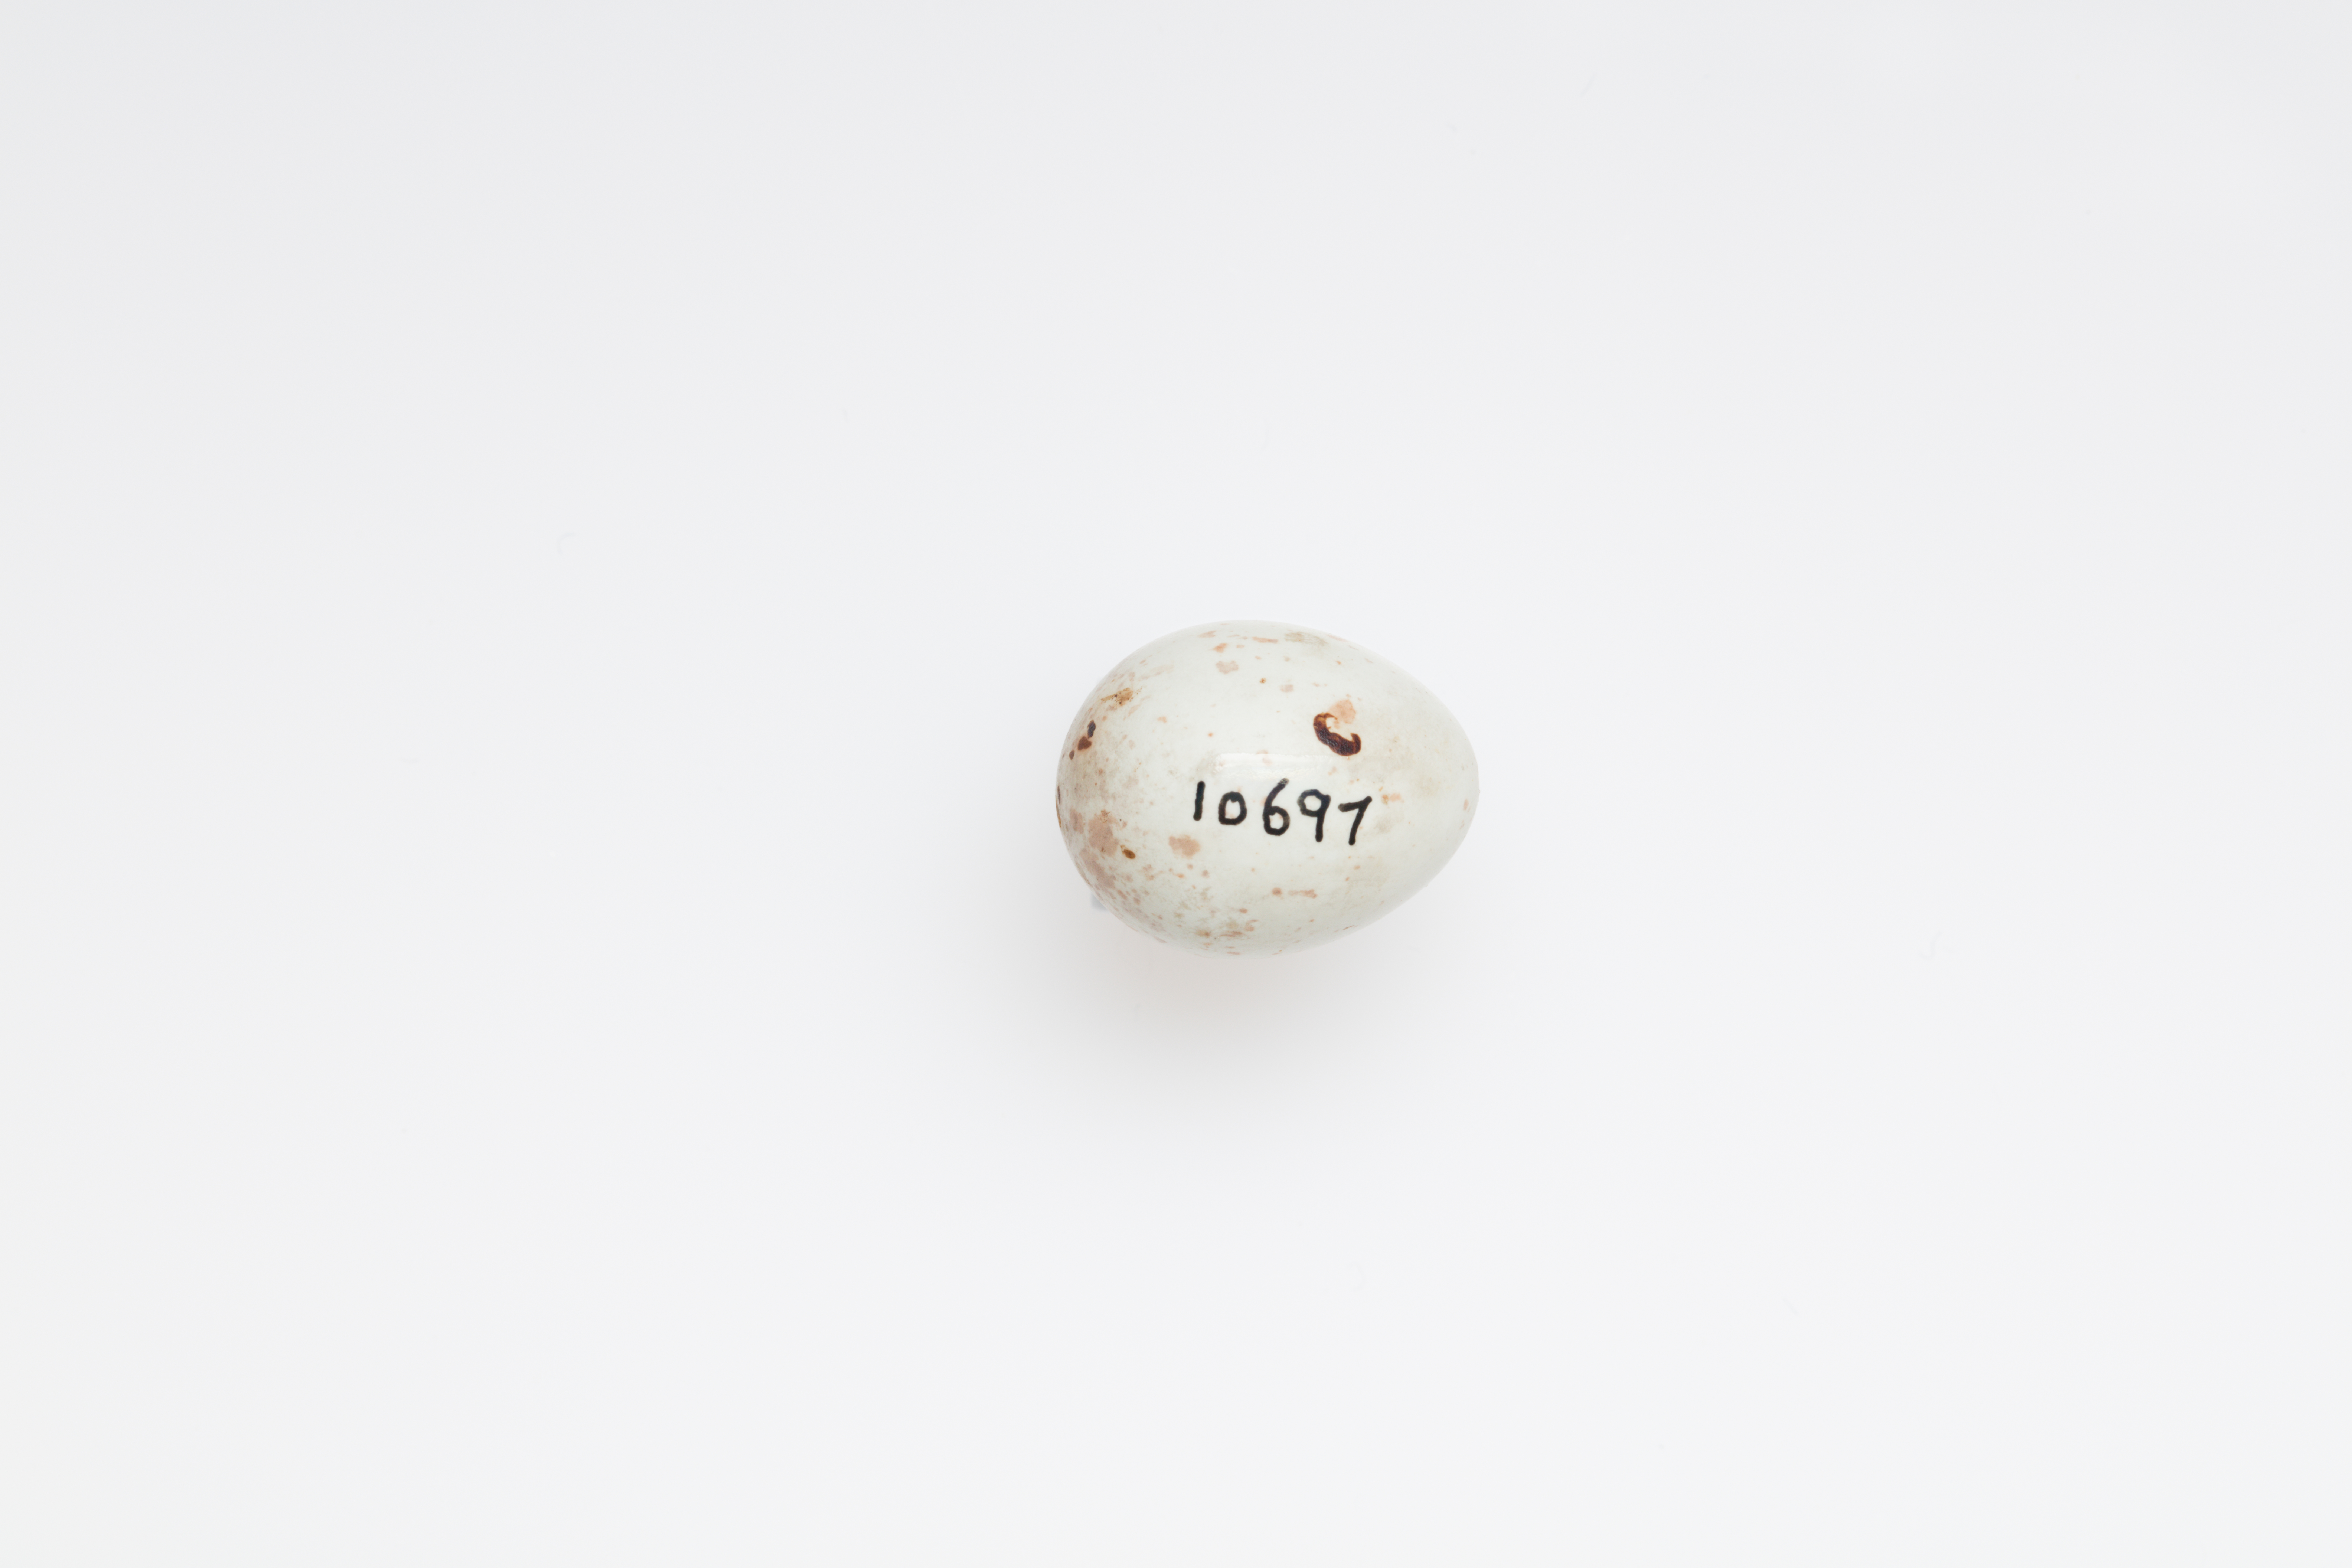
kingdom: Animalia
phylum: Chordata
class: Aves
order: Passeriformes
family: Fringillidae
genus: Linaria
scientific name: Linaria cannabina
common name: Common linnet
